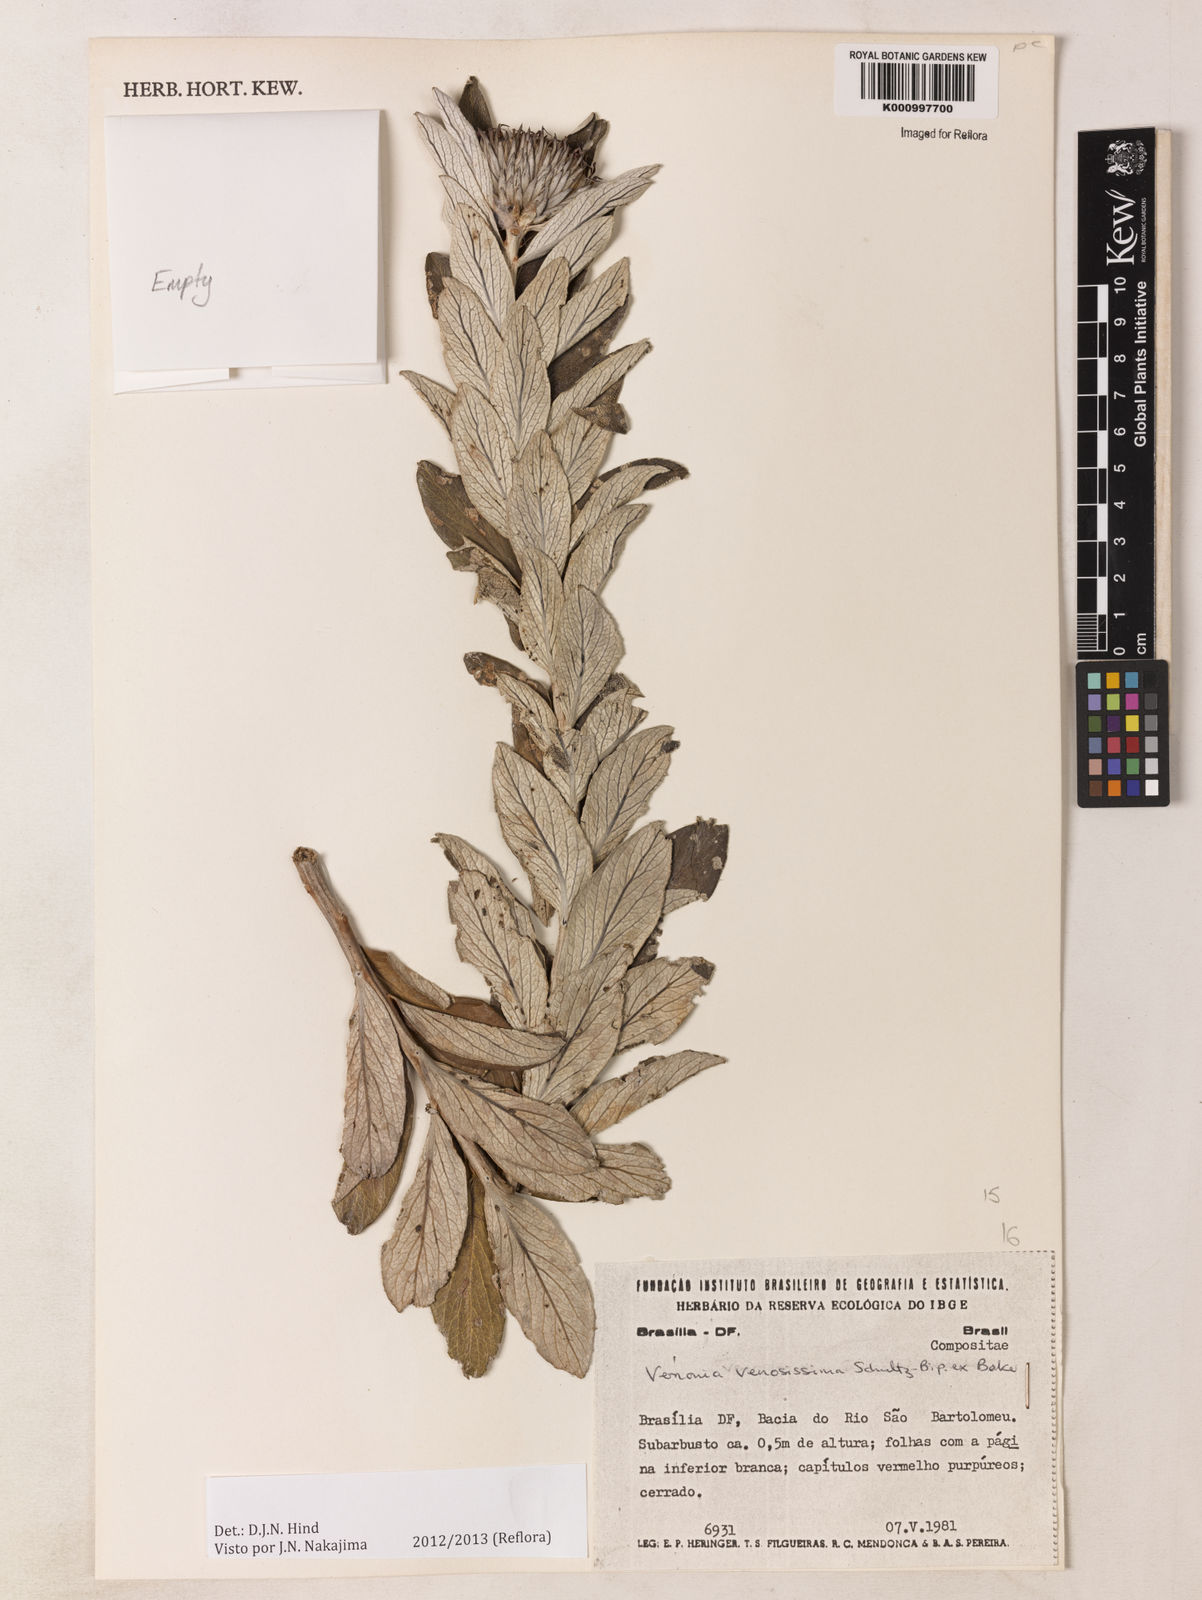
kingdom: Plantae
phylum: Tracheophyta
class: Magnoliopsida
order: Asterales
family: Asteraceae
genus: Lessingianthus
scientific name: Lessingianthus venosissimus
